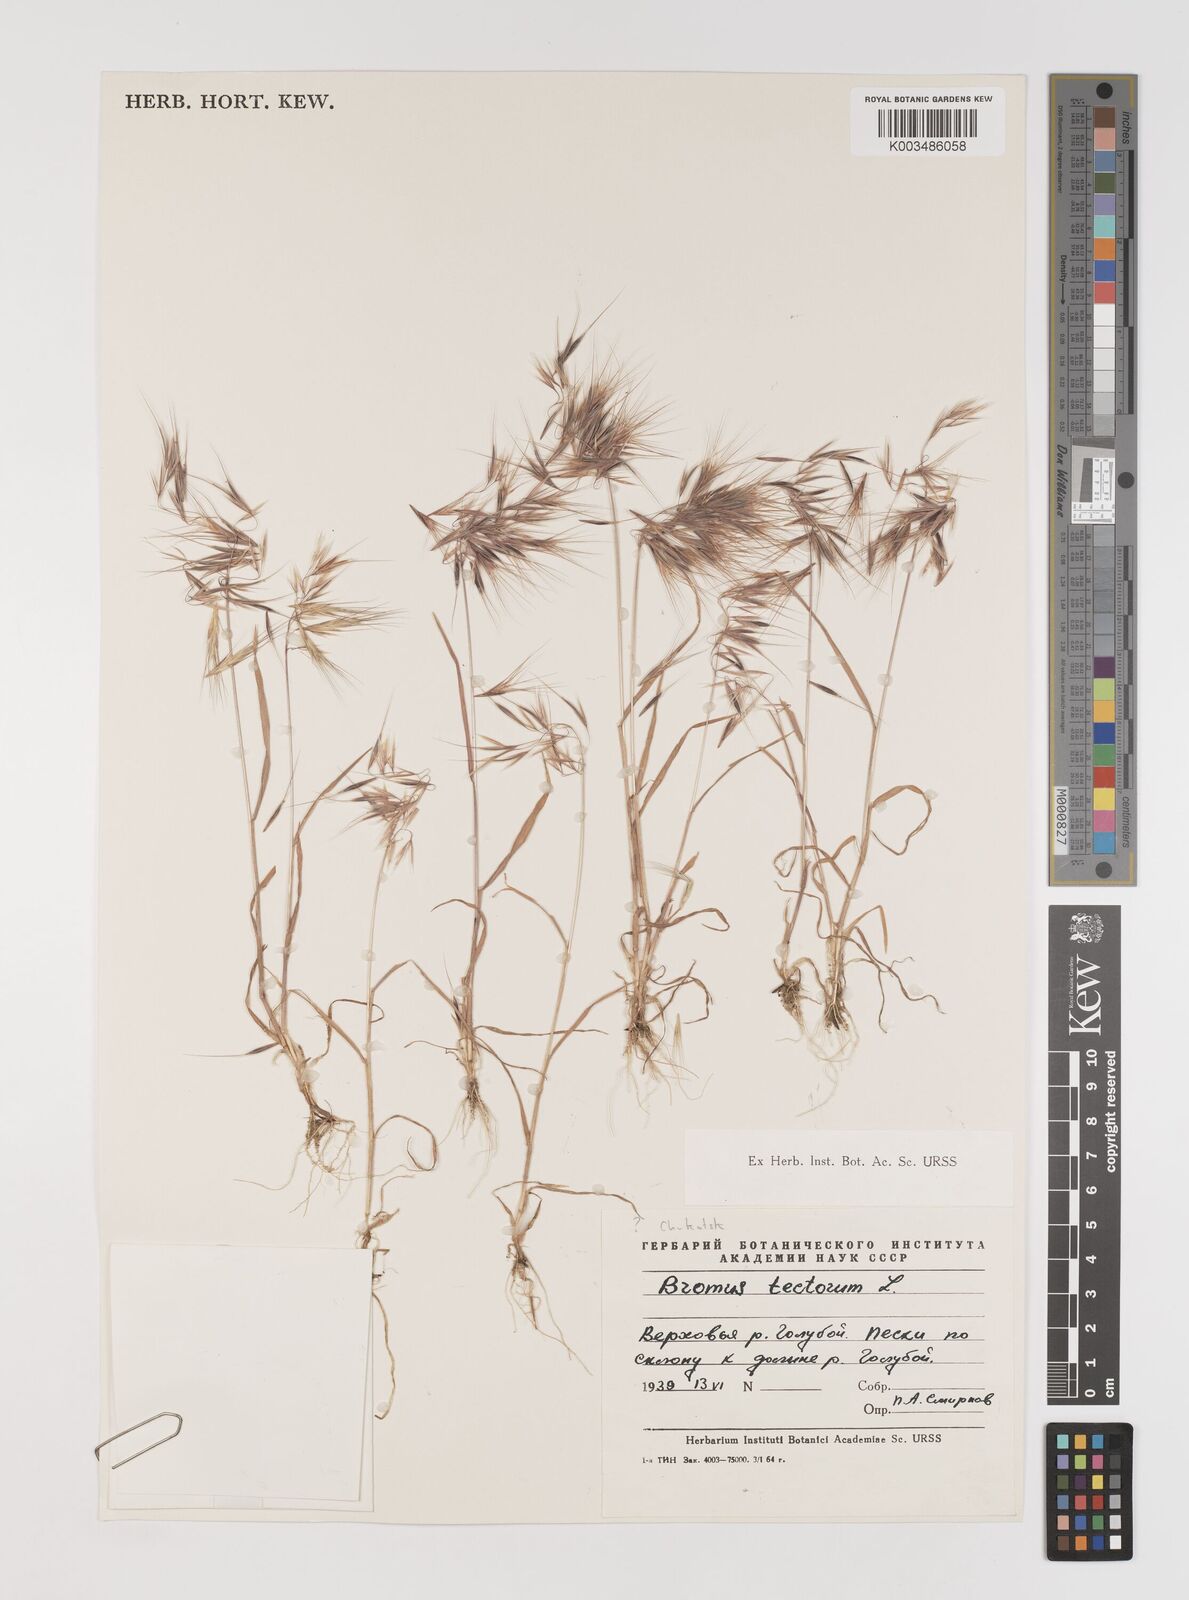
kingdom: Plantae
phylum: Tracheophyta
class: Liliopsida
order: Poales
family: Poaceae
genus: Bromus
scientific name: Bromus tectorum
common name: Cheatgrass
